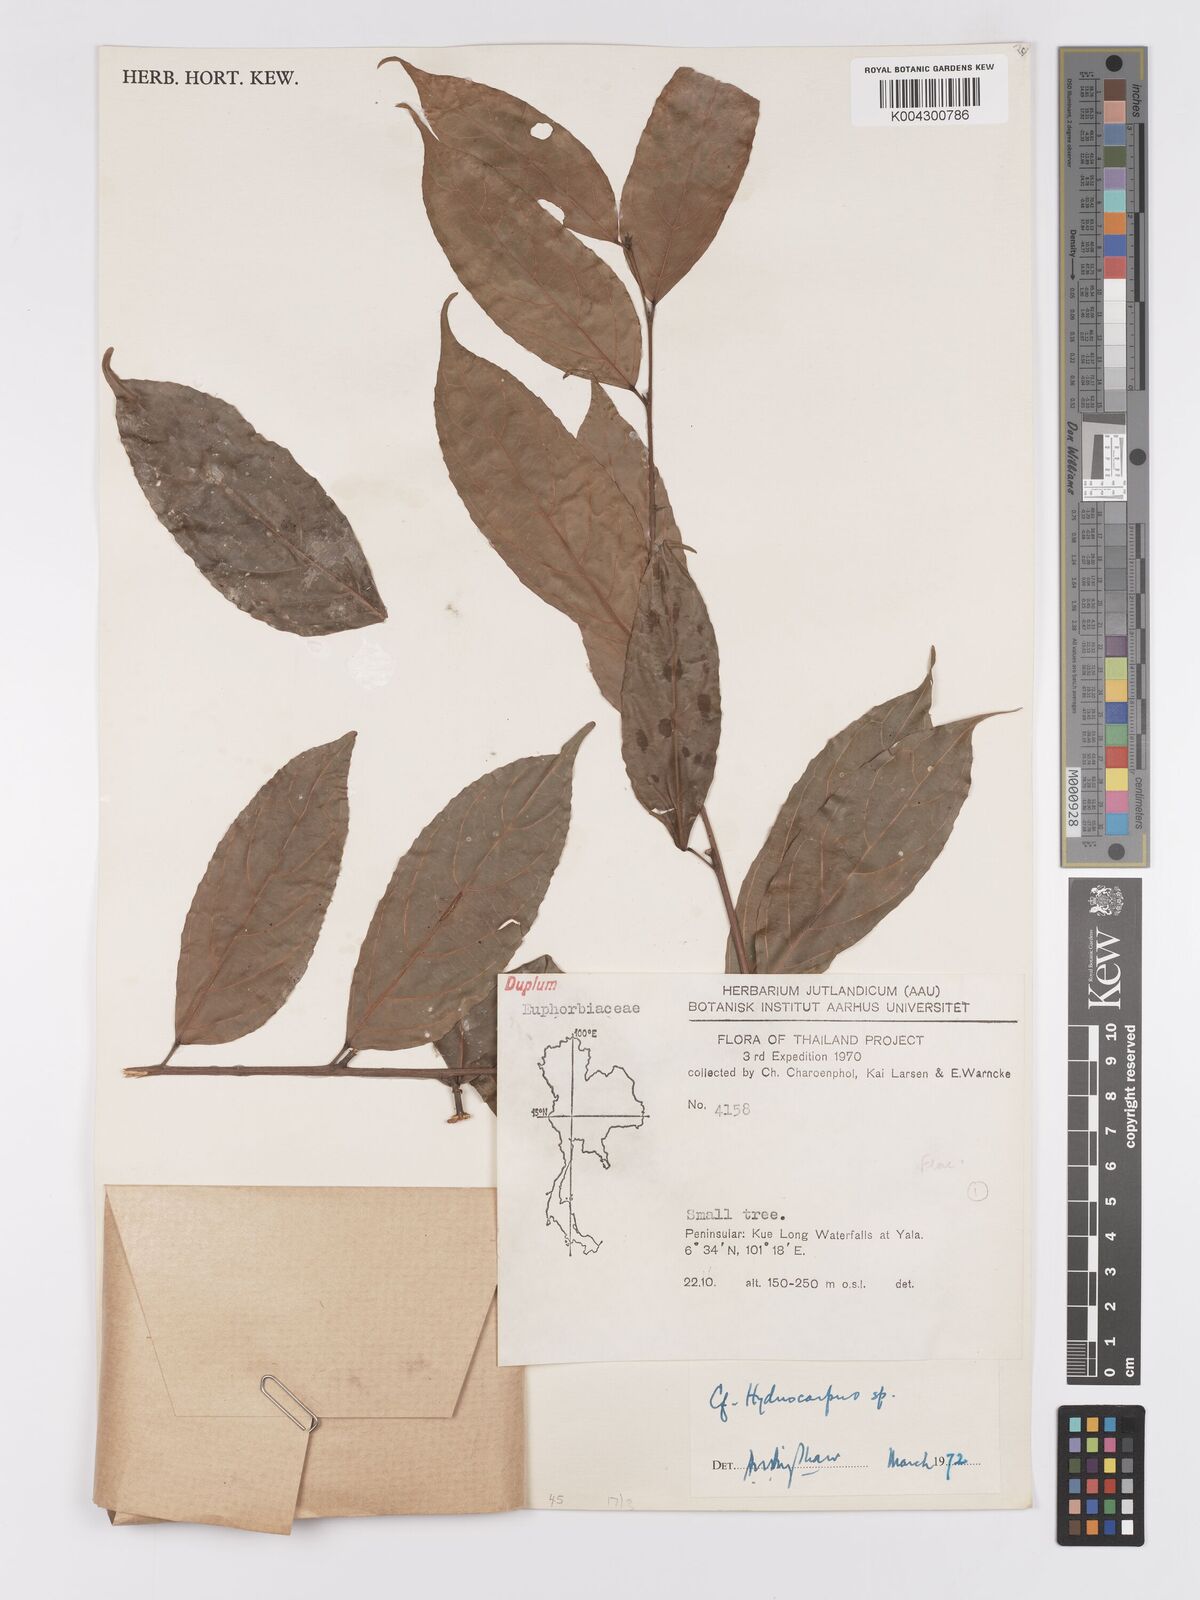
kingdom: Plantae
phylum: Tracheophyta
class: Magnoliopsida
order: Malpighiales
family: Achariaceae
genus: Hydnocarpus
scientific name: Hydnocarpus
